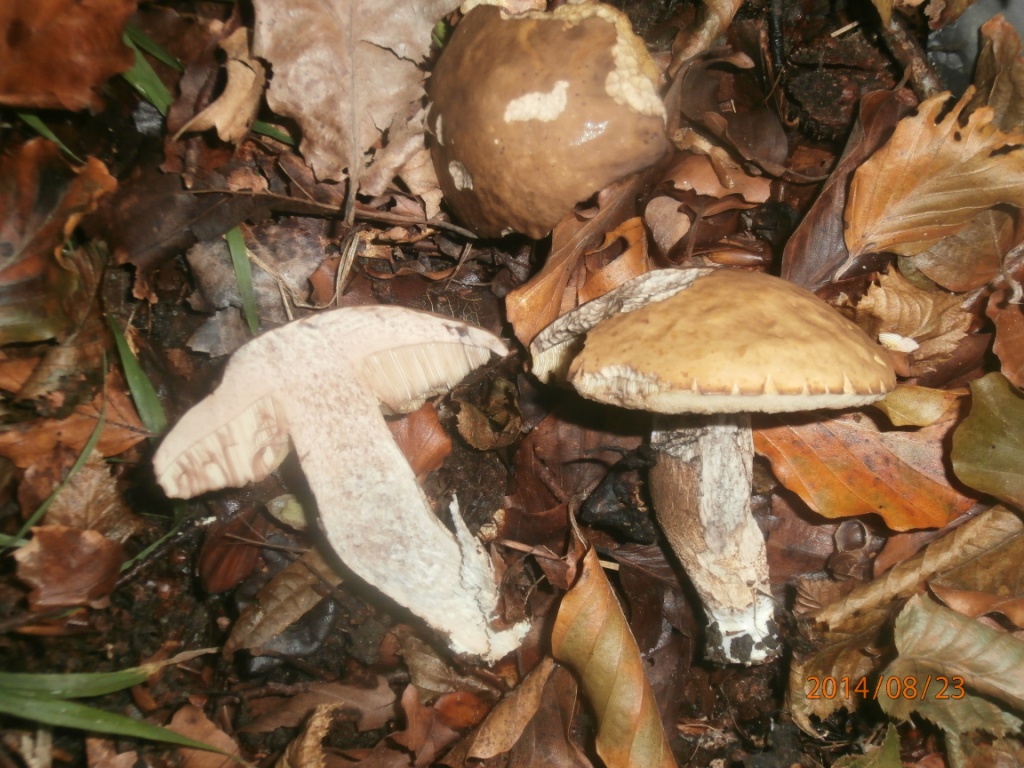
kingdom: Fungi
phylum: Basidiomycota
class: Agaricomycetes
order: Boletales
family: Boletaceae
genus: Leccinellum
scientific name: Leccinellum pseudoscabrum
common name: avnbøg-skælrørhat
